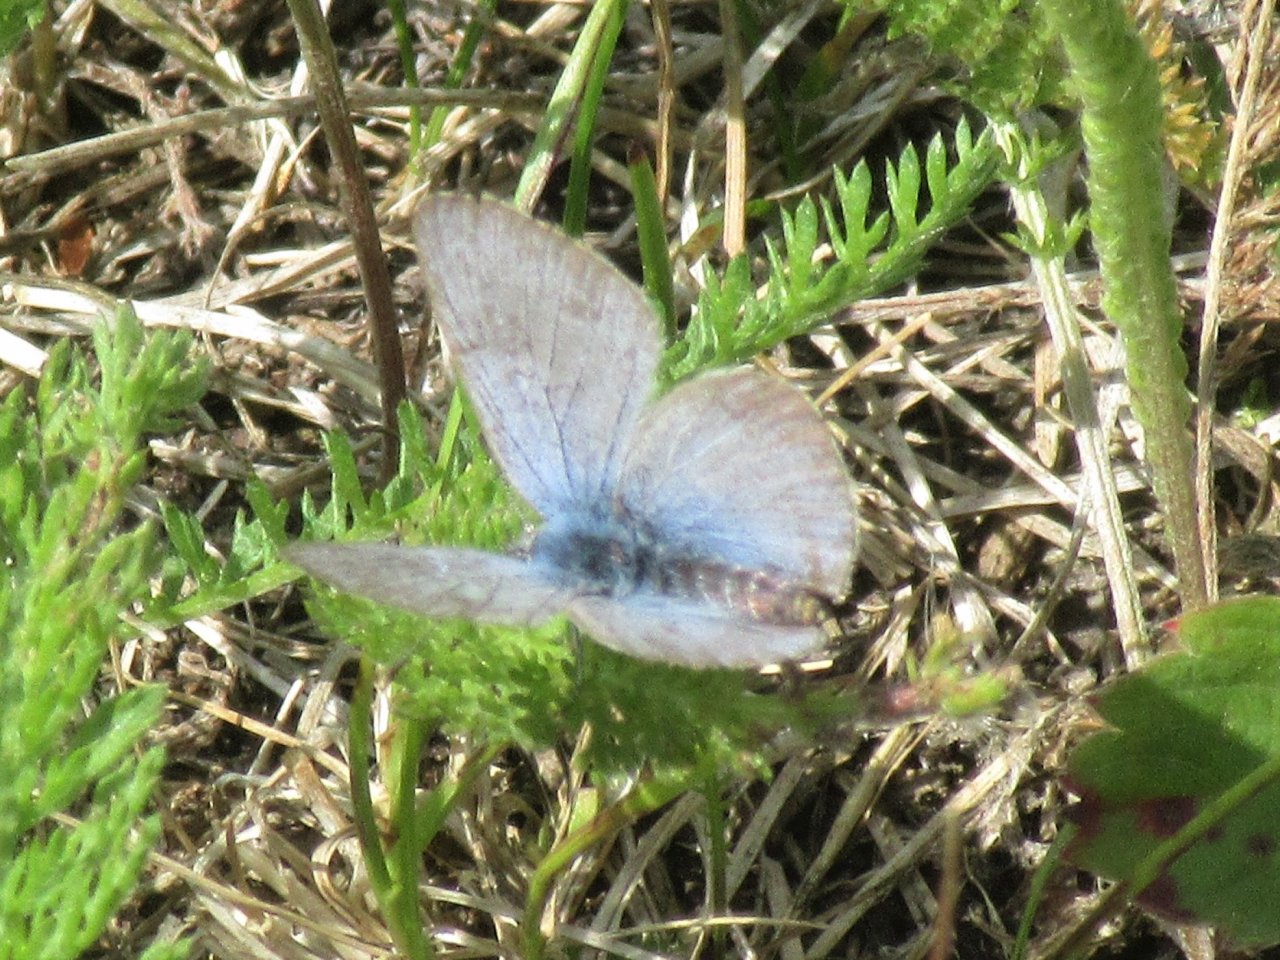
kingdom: Animalia
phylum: Arthropoda
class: Insecta
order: Lepidoptera
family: Lycaenidae
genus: Plebejus
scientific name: Plebejus saepiolus
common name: Greenish Blue
